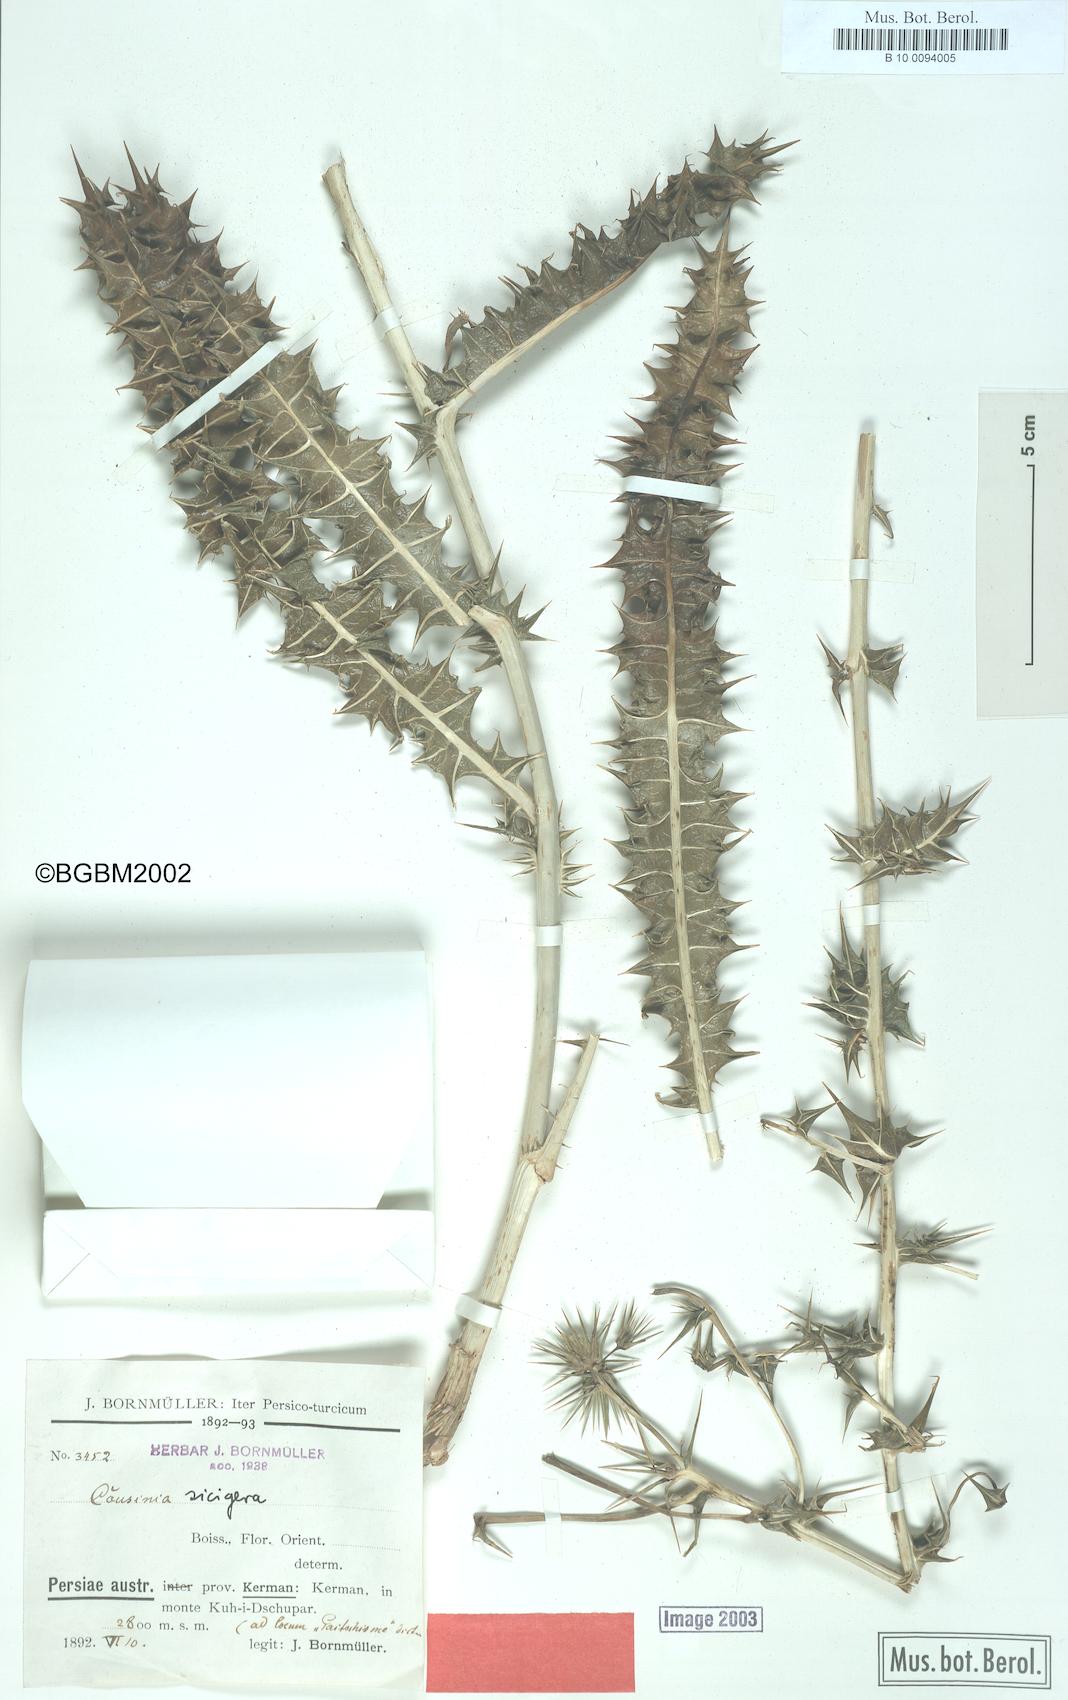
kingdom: Plantae
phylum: Tracheophyta
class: Magnoliopsida
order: Asterales
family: Asteraceae
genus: Cousinia
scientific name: Cousinia sicigera
